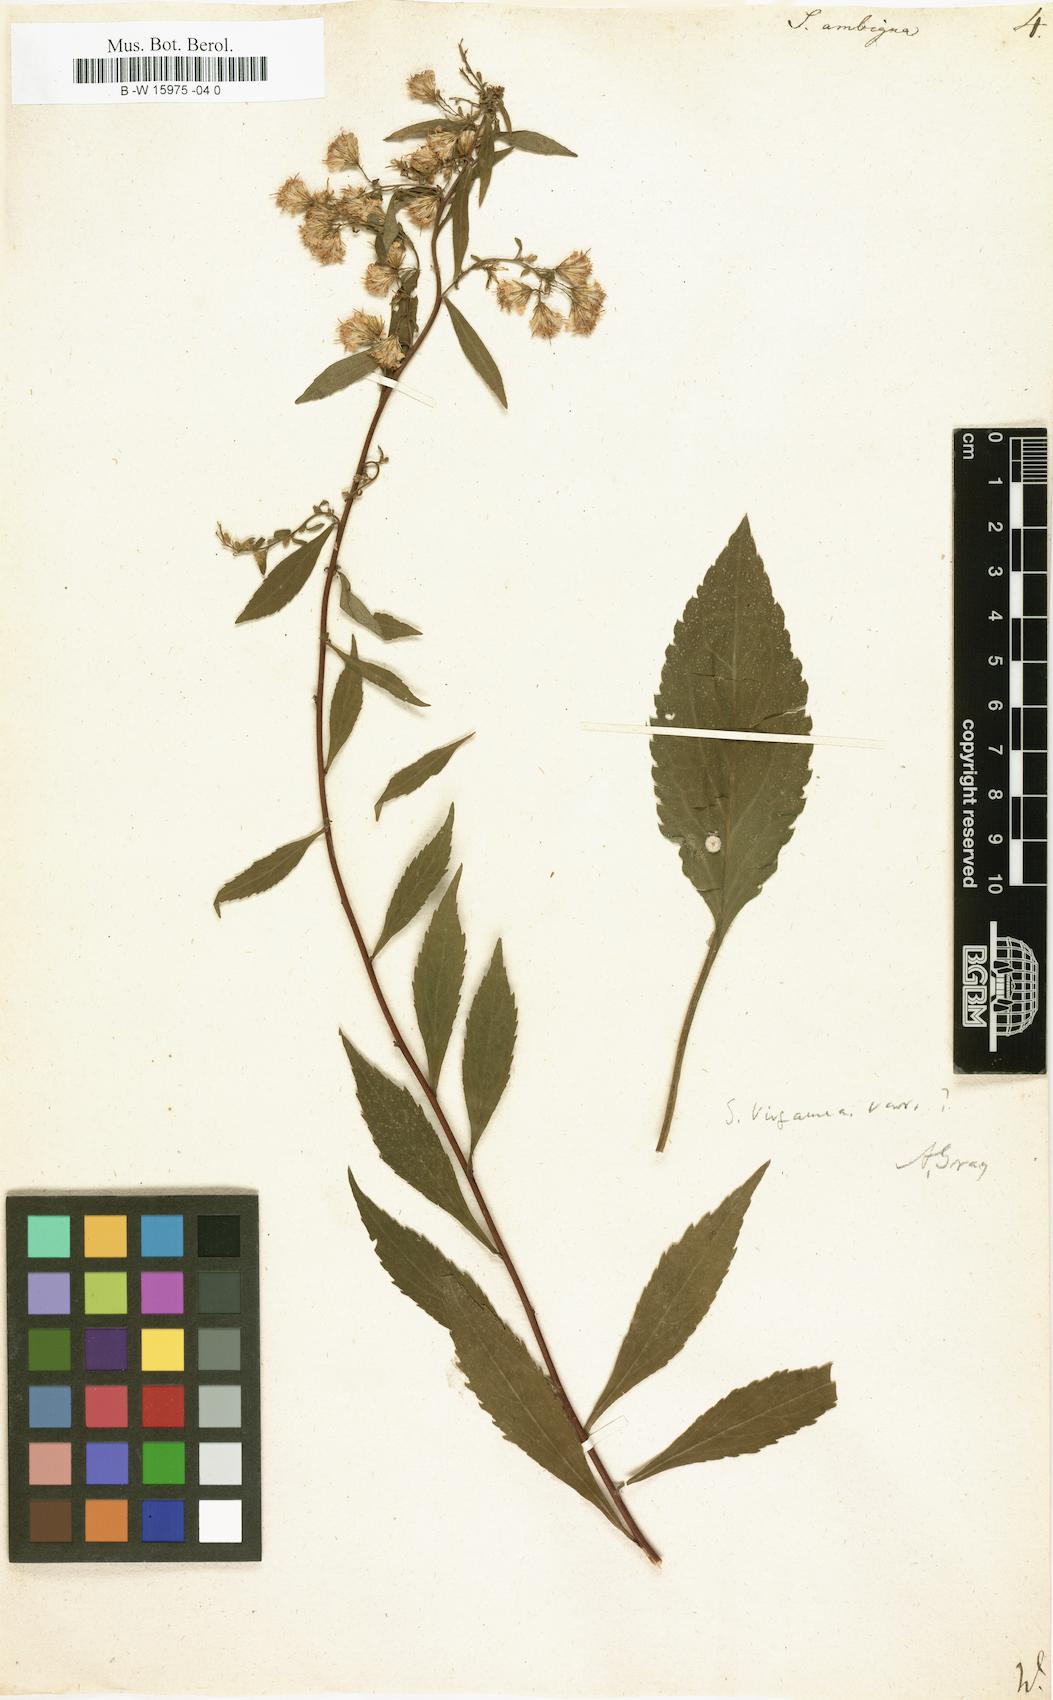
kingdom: Plantae
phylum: Tracheophyta
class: Magnoliopsida
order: Asterales
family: Asteraceae
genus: Solidago
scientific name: Solidago virgaurea
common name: Goldenrod
